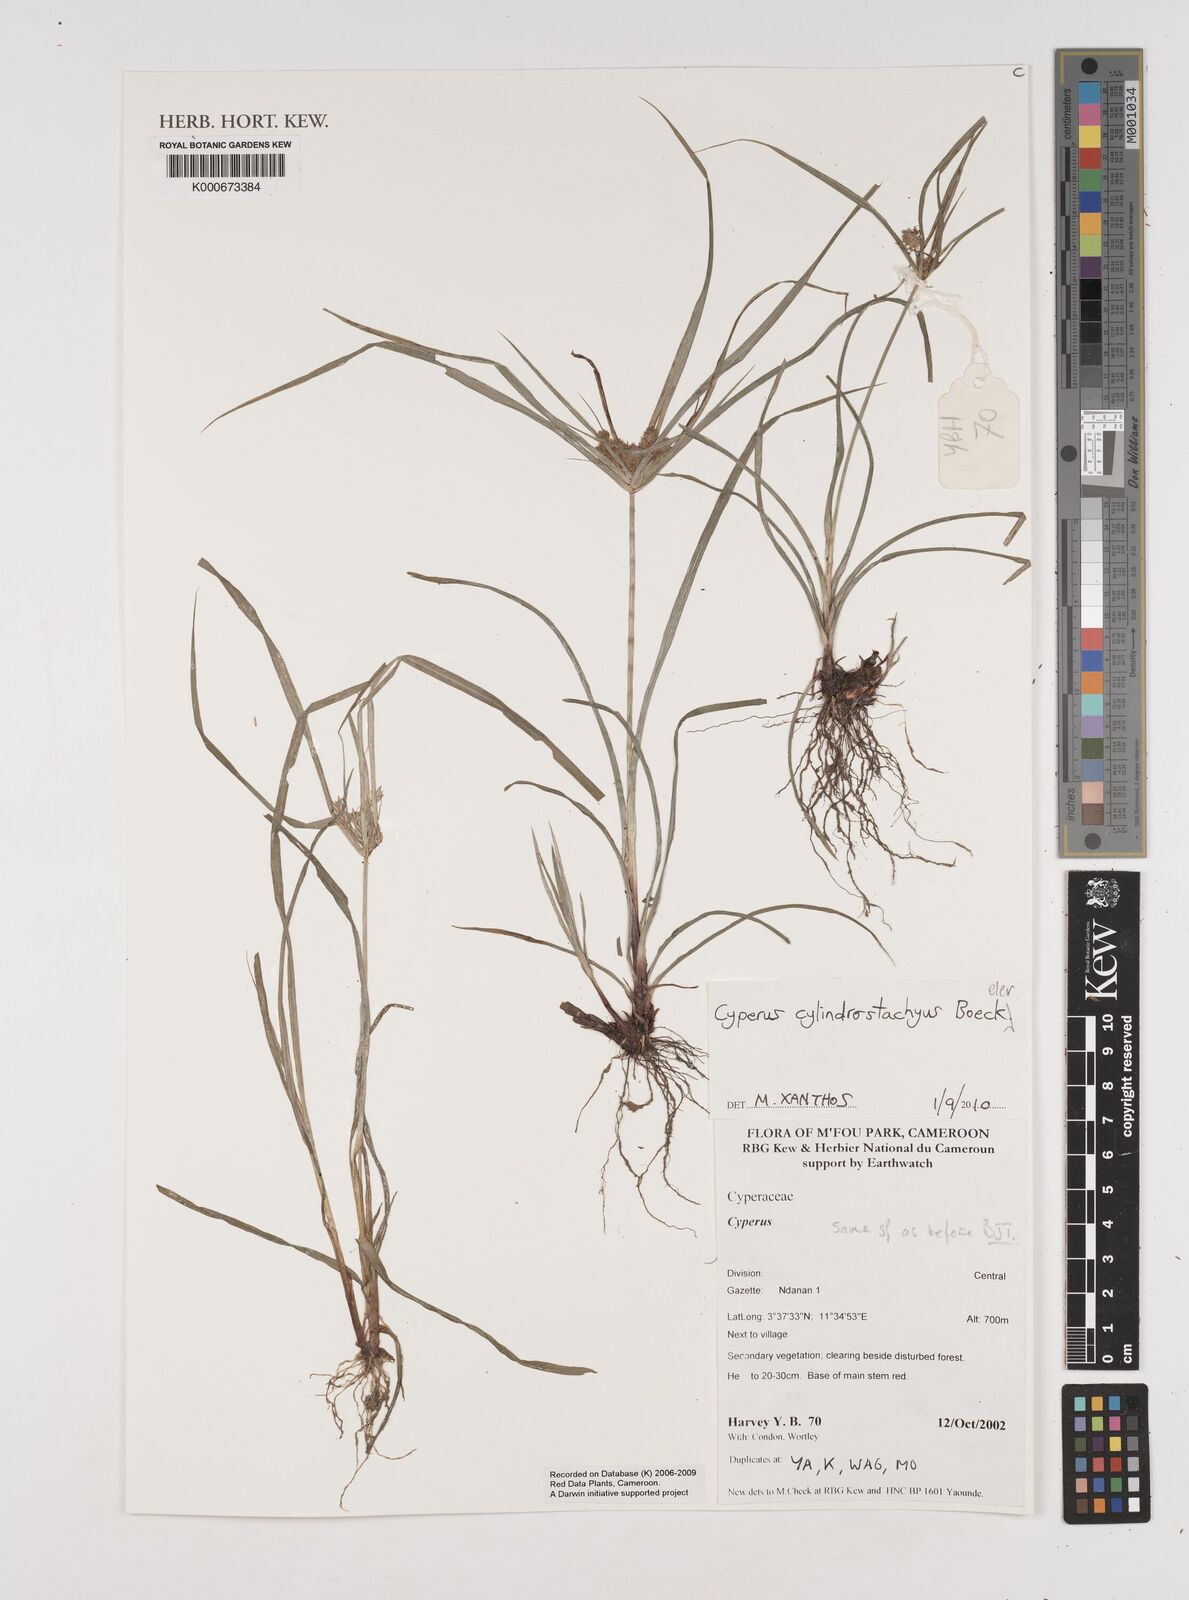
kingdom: Plantae
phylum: Tracheophyta
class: Liliopsida
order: Poales
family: Cyperaceae
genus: Cyperus
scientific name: Cyperus cyperinus
